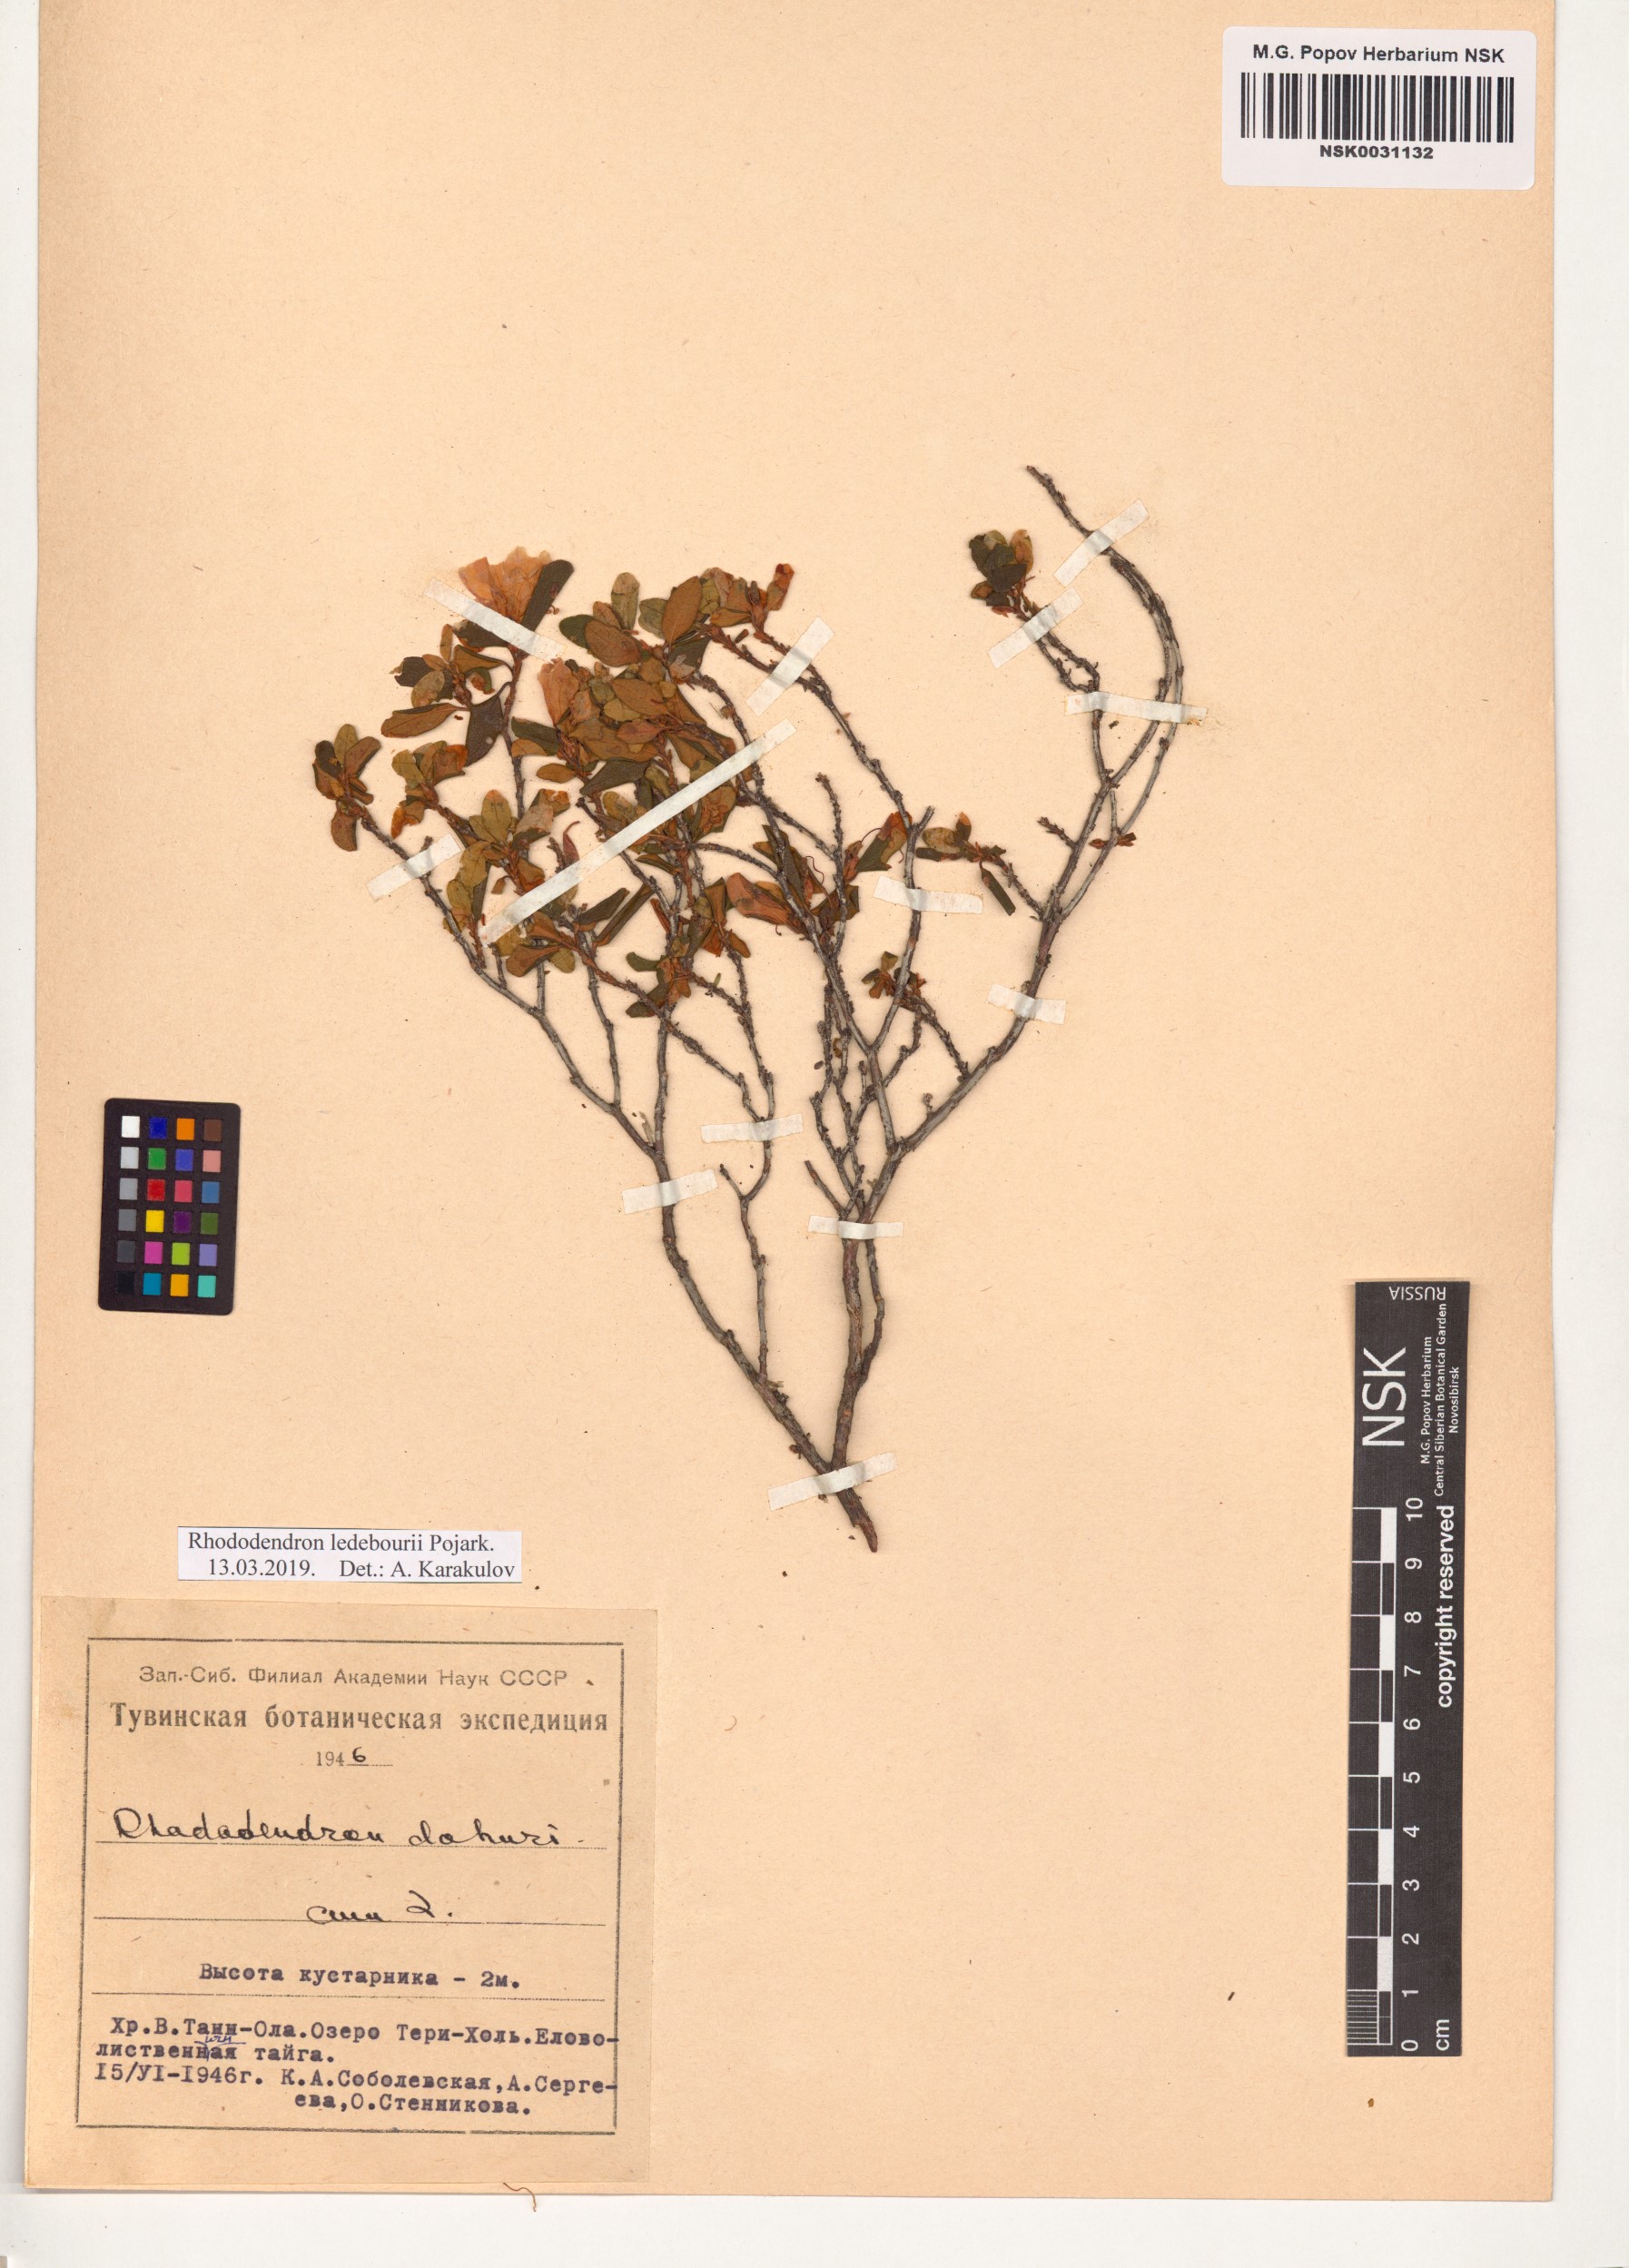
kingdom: Plantae
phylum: Tracheophyta
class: Magnoliopsida
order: Ericales
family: Ericaceae
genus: Rhododendron
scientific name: Rhododendron dauricum
